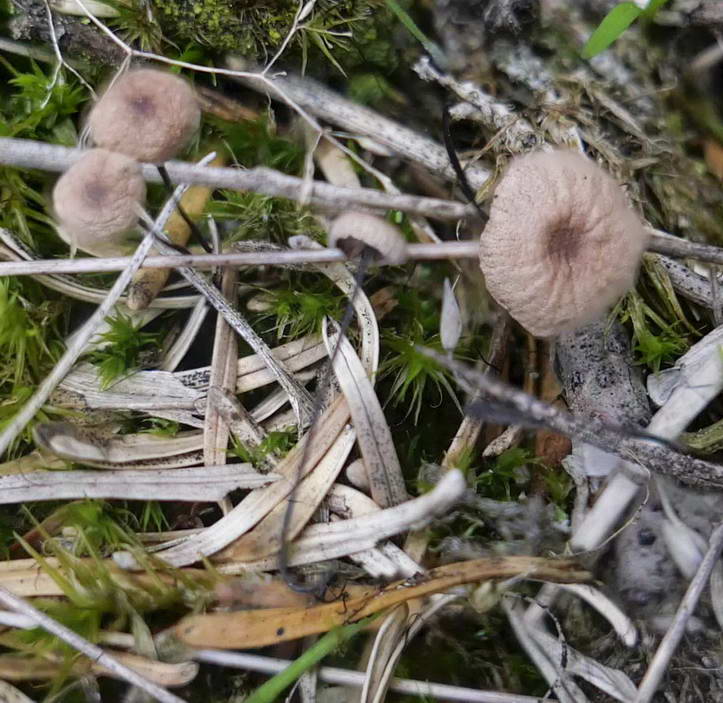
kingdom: Fungi
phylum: Basidiomycota
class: Agaricomycetes
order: Agaricales
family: Omphalotaceae
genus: Gymnopus
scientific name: Gymnopus androsaceus
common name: trådstokket fladhat
